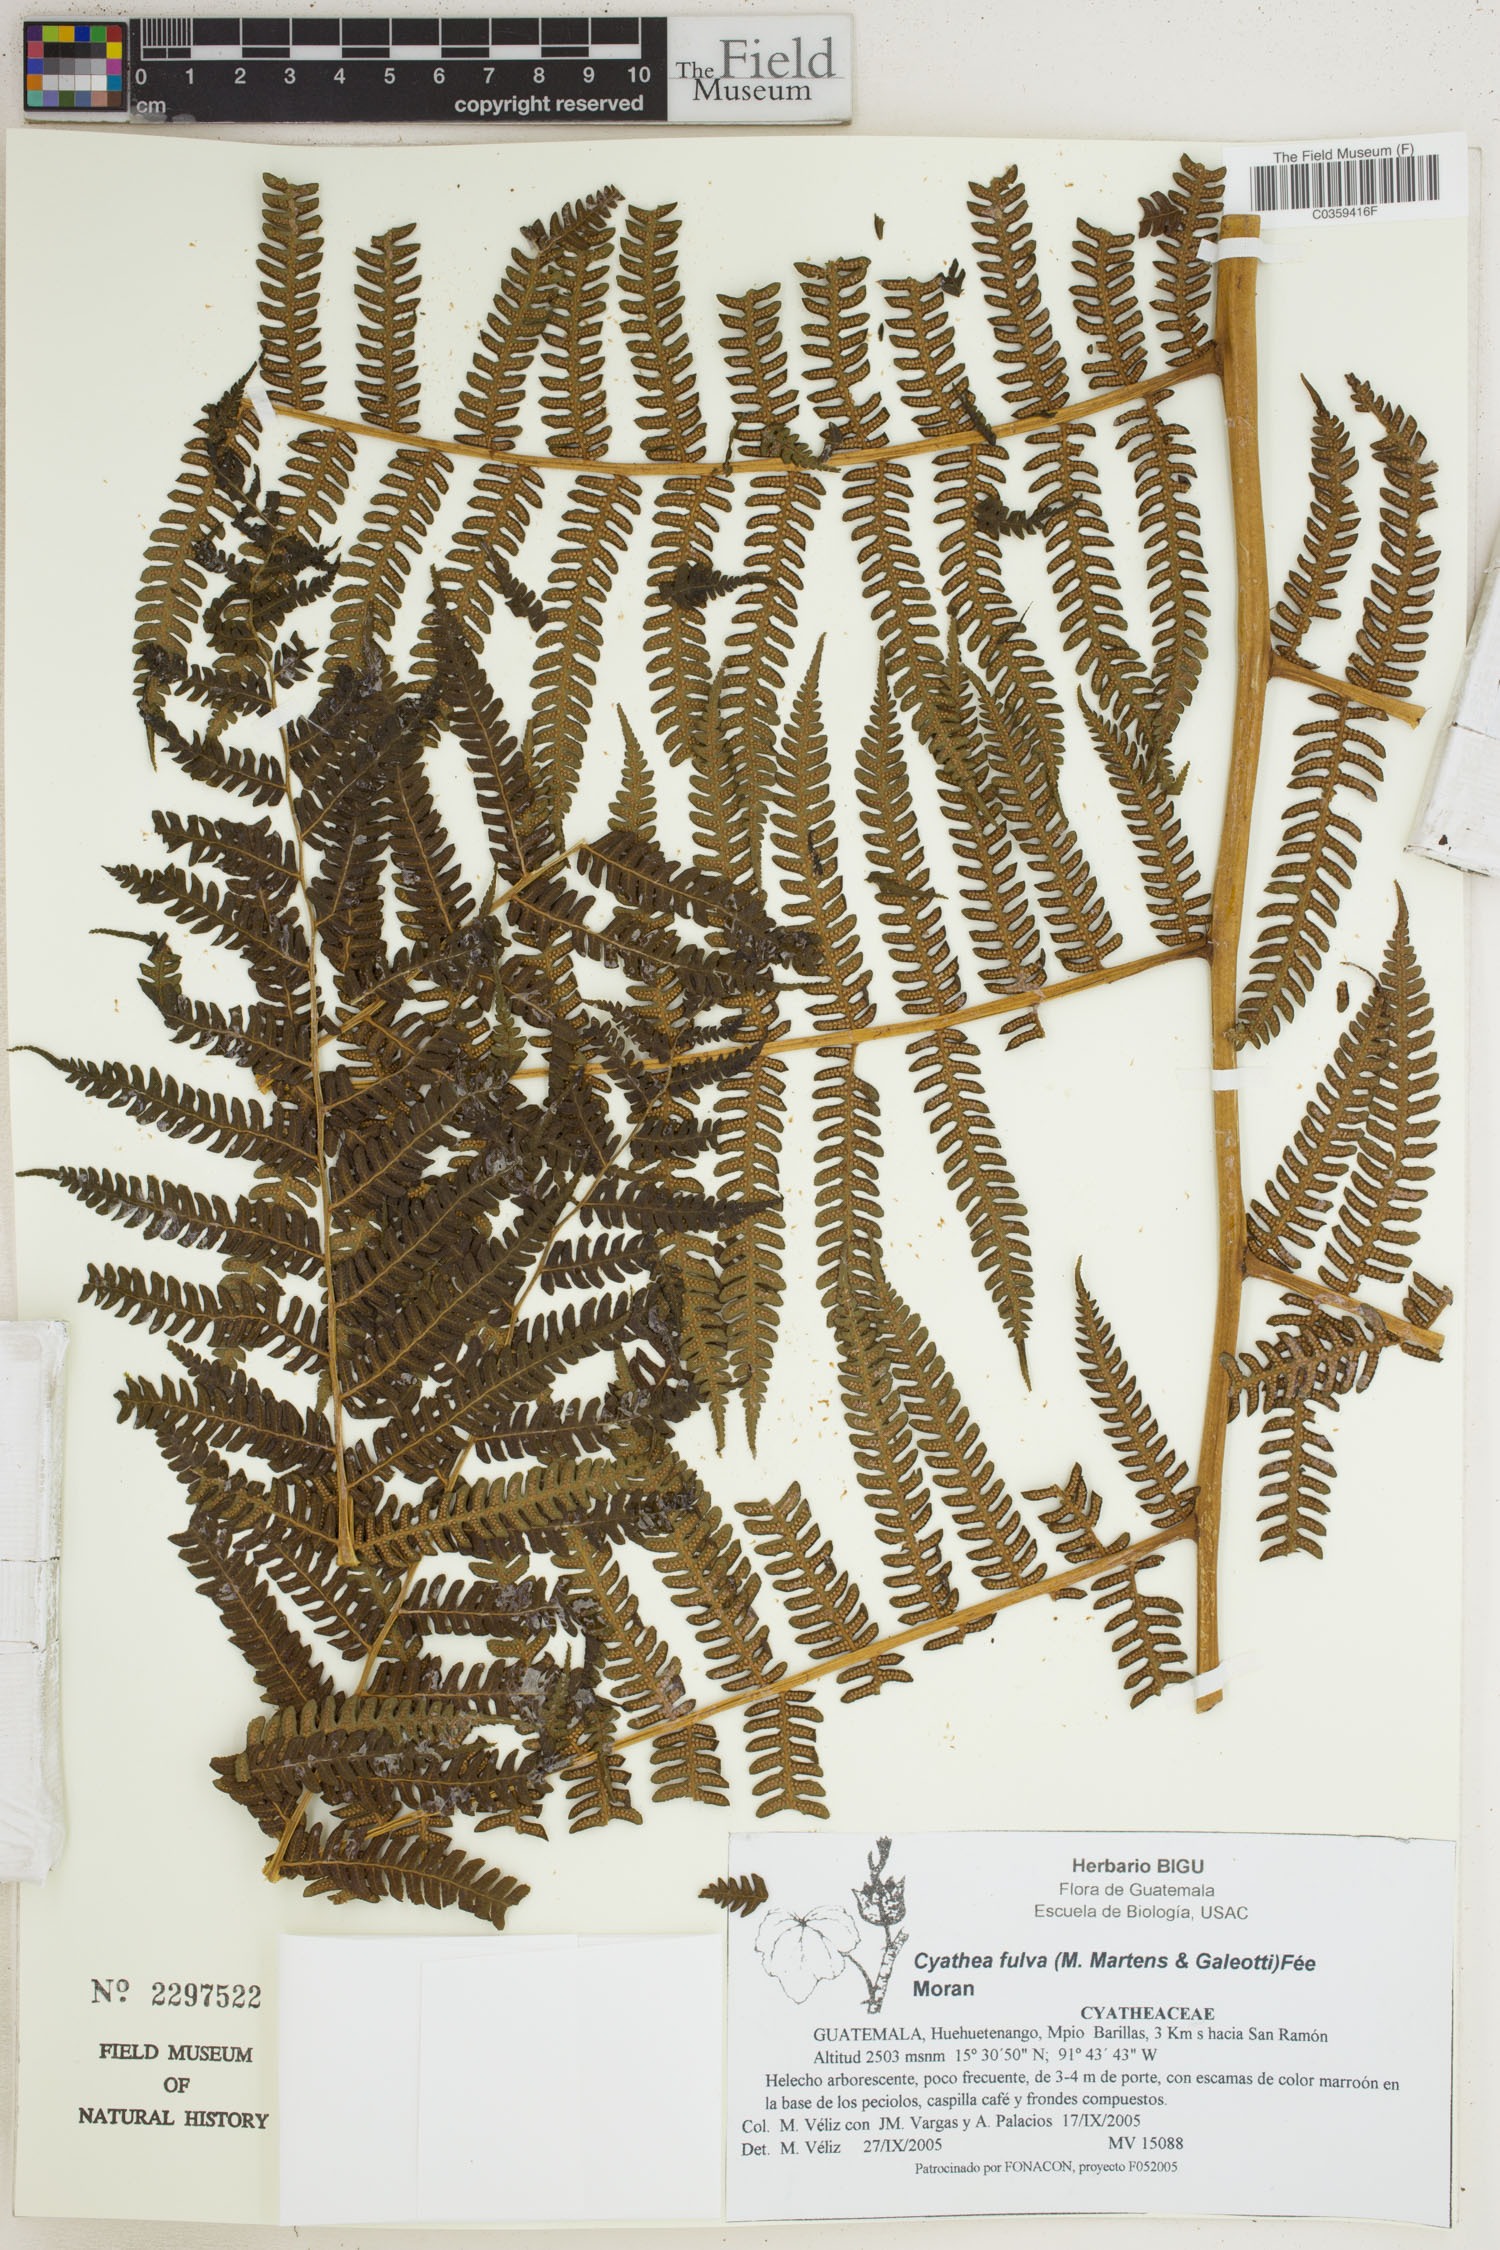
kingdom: Plantae
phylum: Tracheophyta
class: Polypodiopsida
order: Cyatheales
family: Cyatheaceae
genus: Cyathea
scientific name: Cyathea fulva
